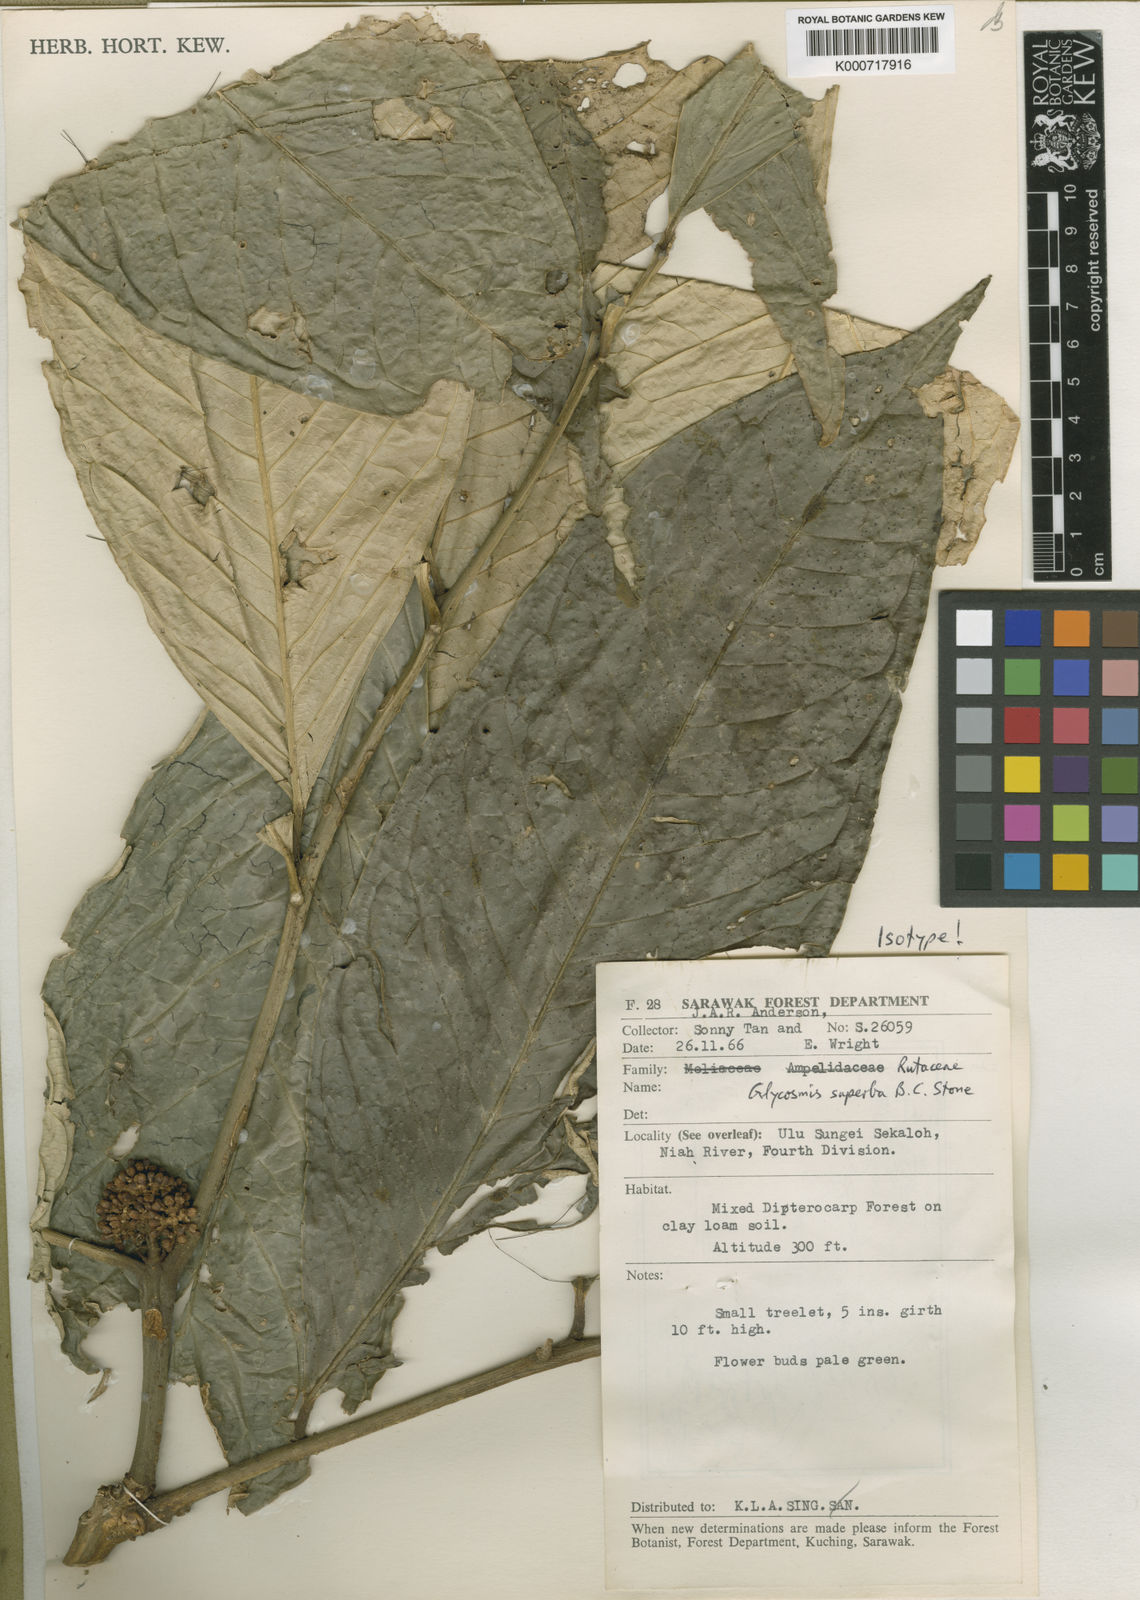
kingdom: Plantae
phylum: Tracheophyta
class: Magnoliopsida
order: Sapindales
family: Rutaceae
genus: Glycosmis
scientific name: Glycosmis superba
